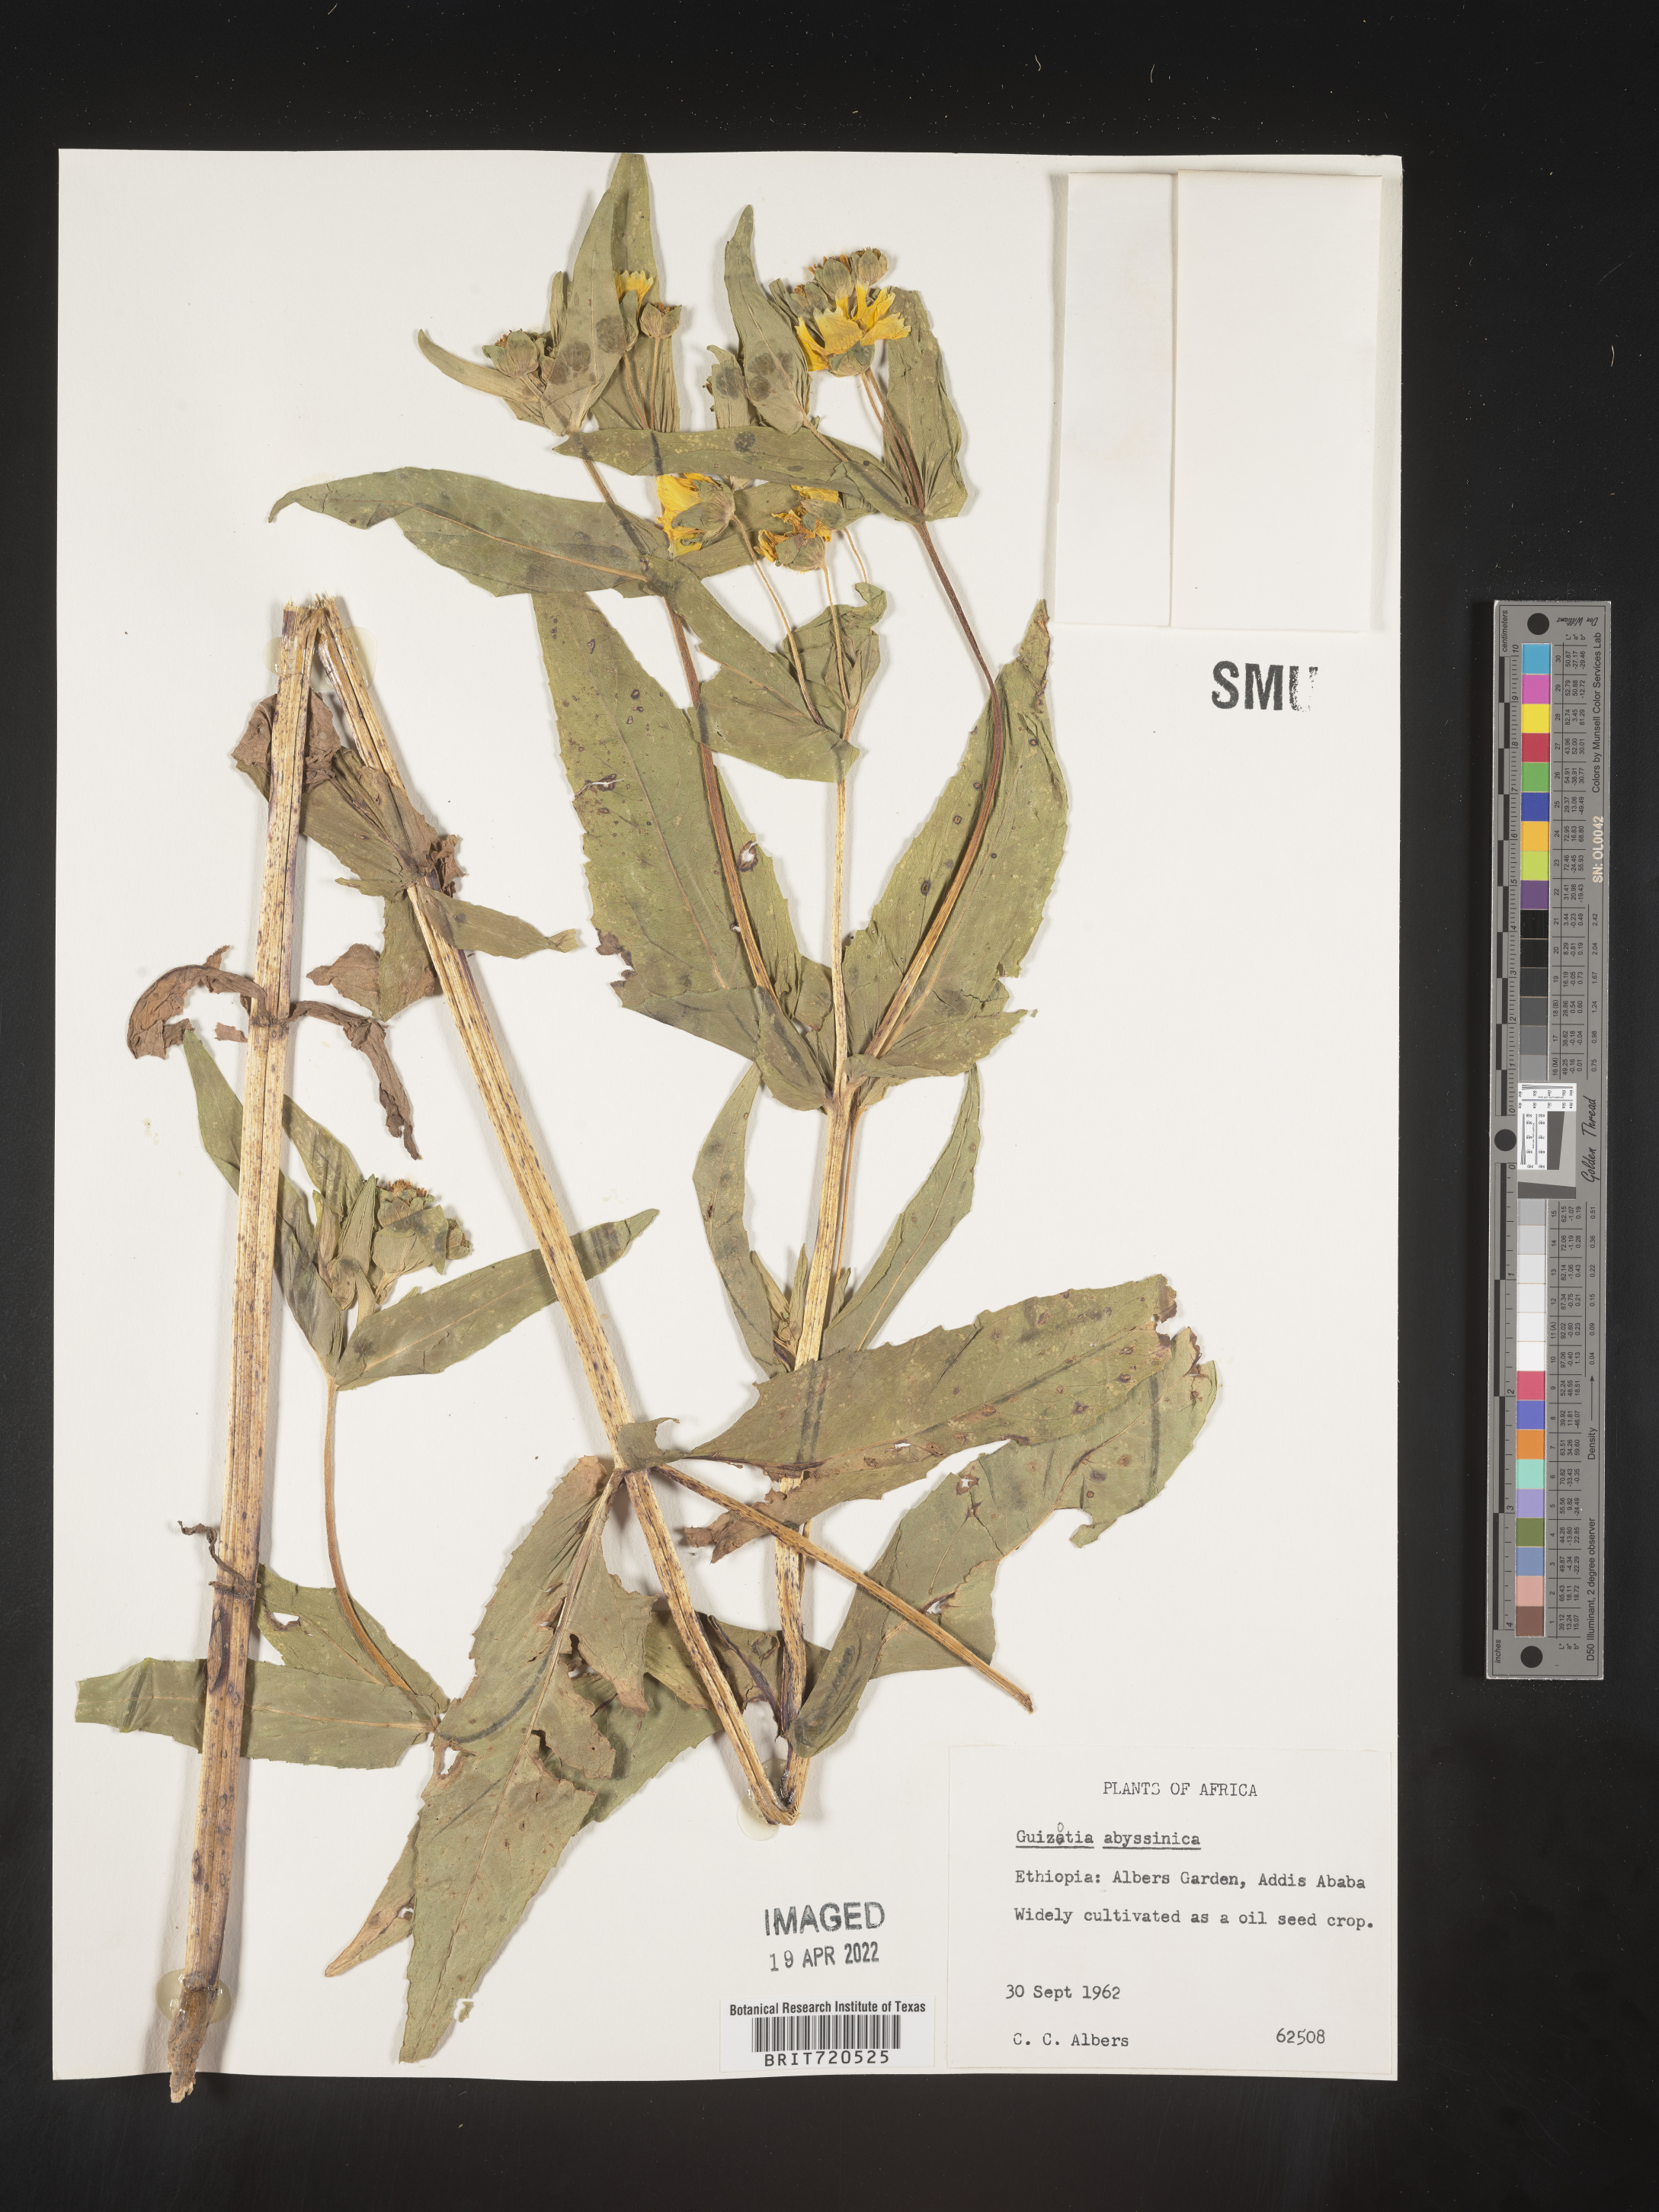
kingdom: Plantae
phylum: Tracheophyta
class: Magnoliopsida
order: Asterales
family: Asteraceae
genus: Guizotia
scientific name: Guizotia
